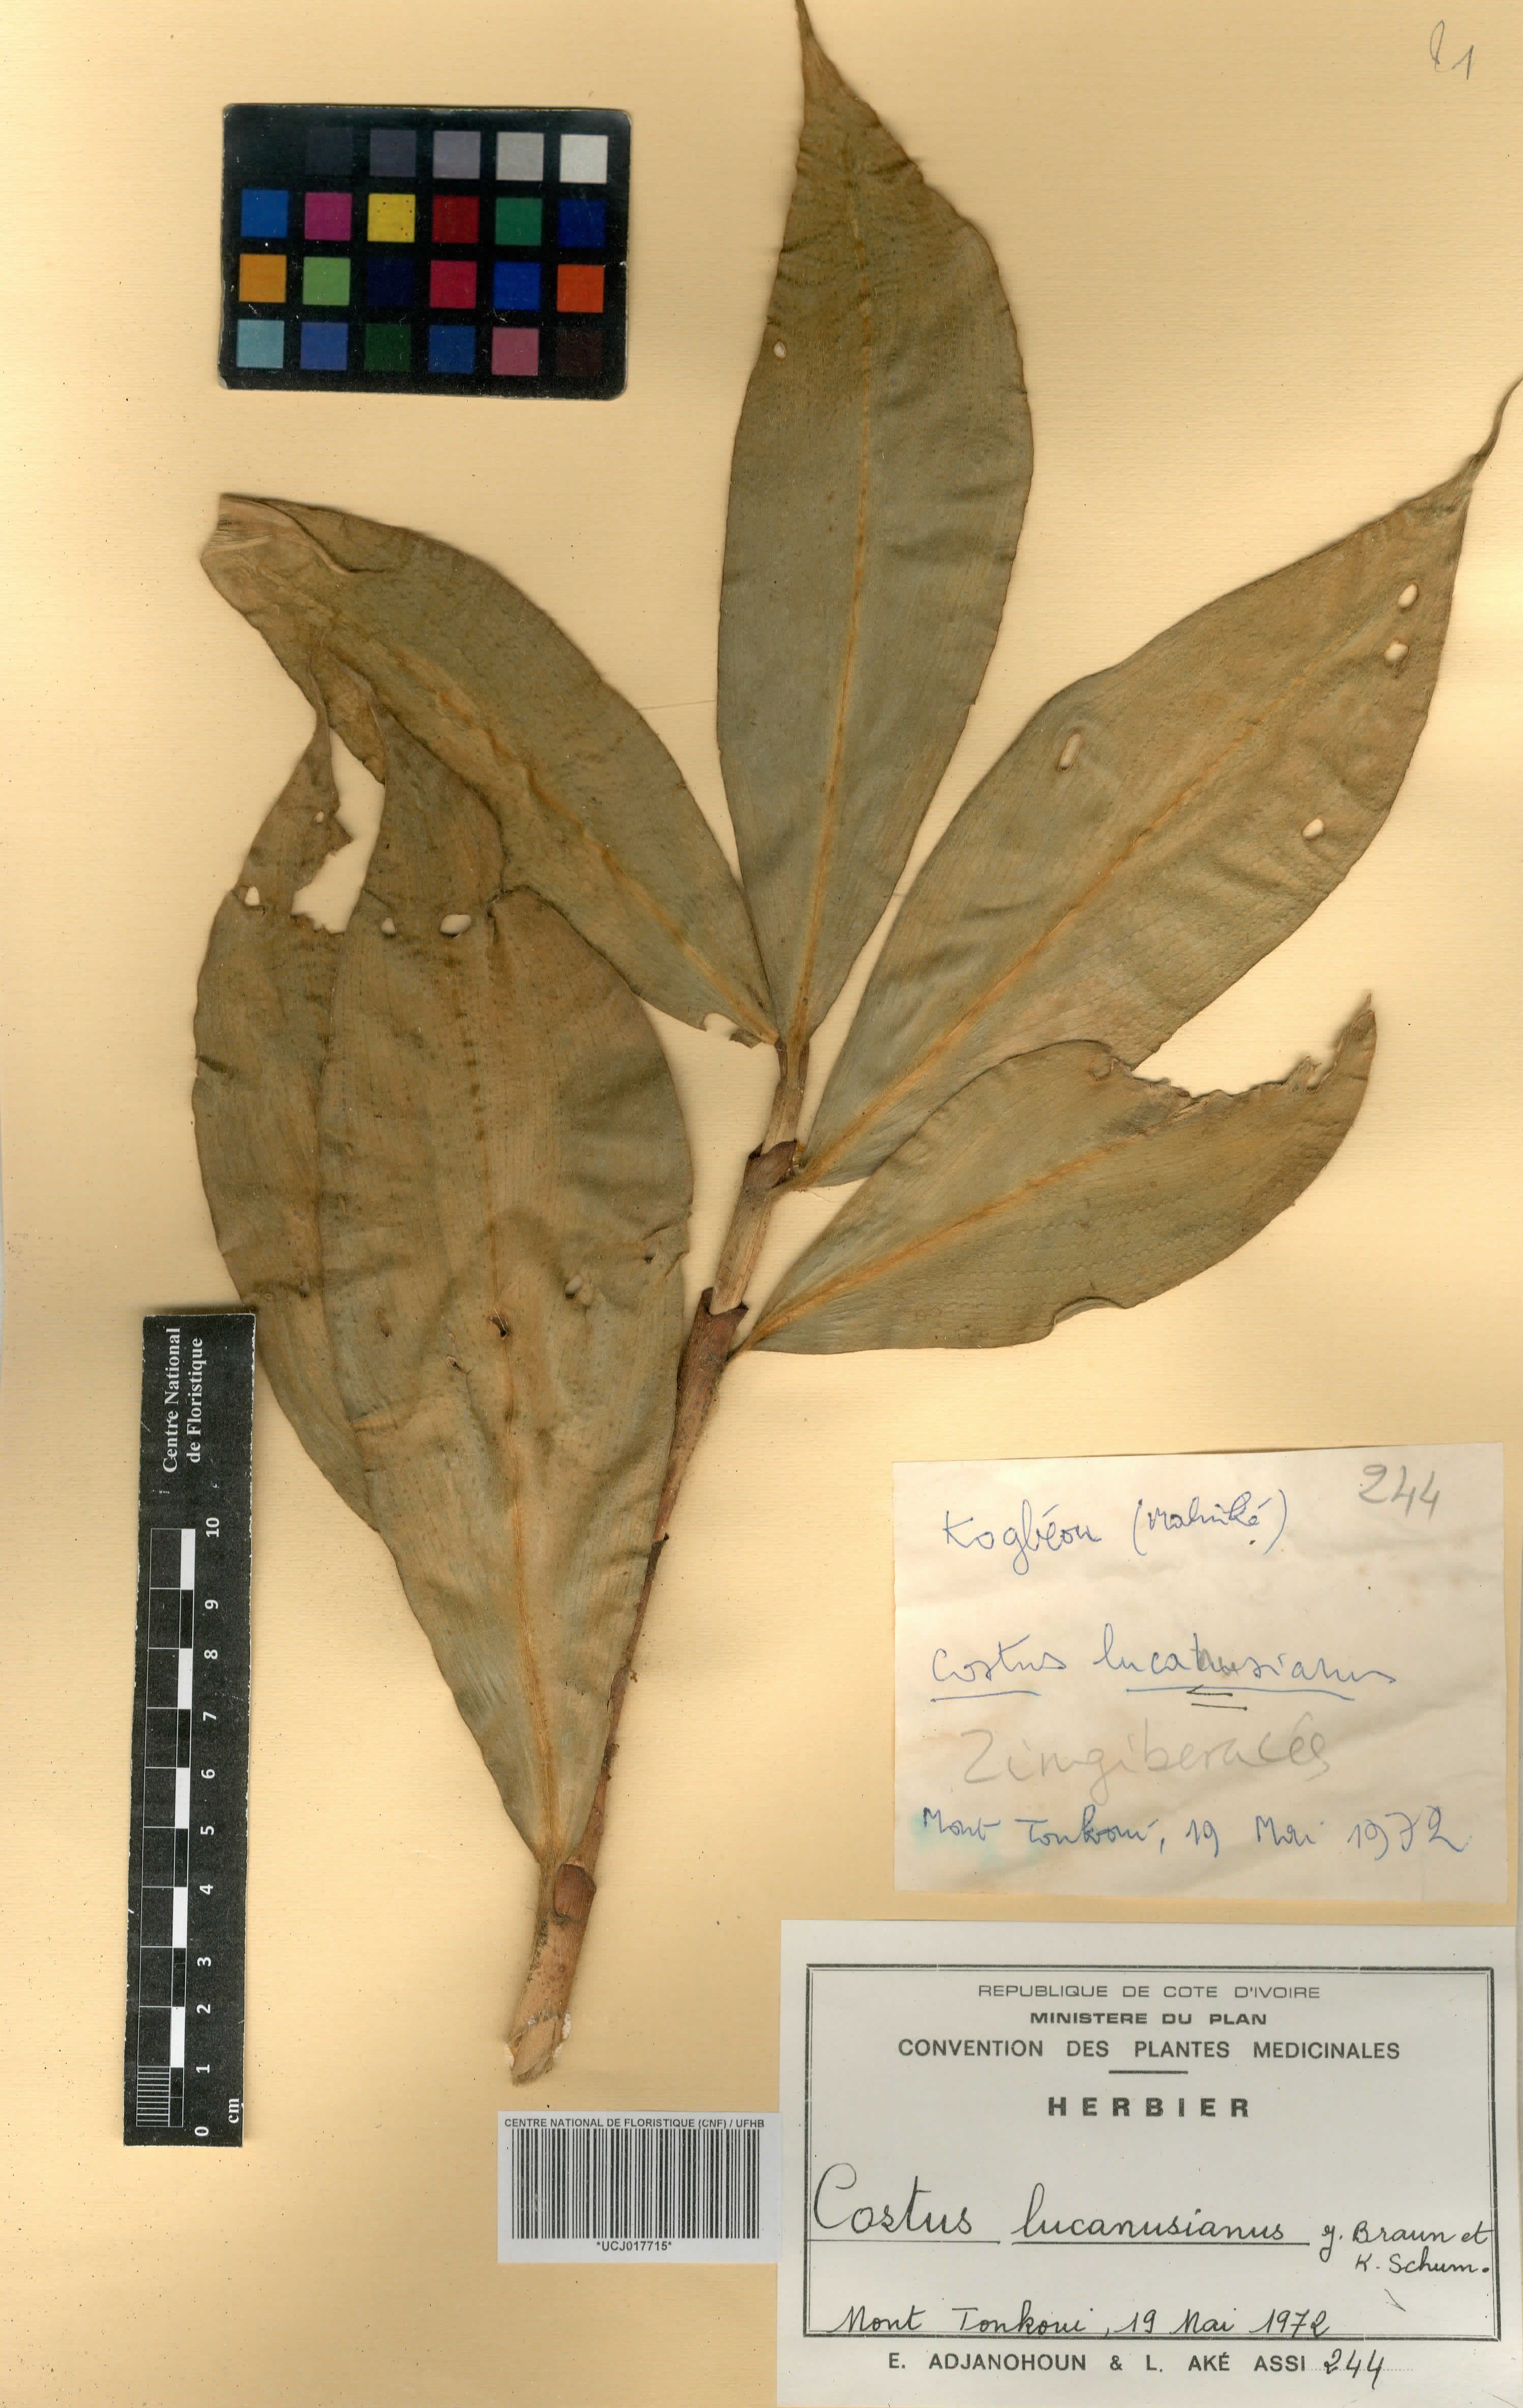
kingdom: Plantae
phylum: Tracheophyta
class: Liliopsida
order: Zingiberales
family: Costaceae
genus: Costus
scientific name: Costus lucanusianus
